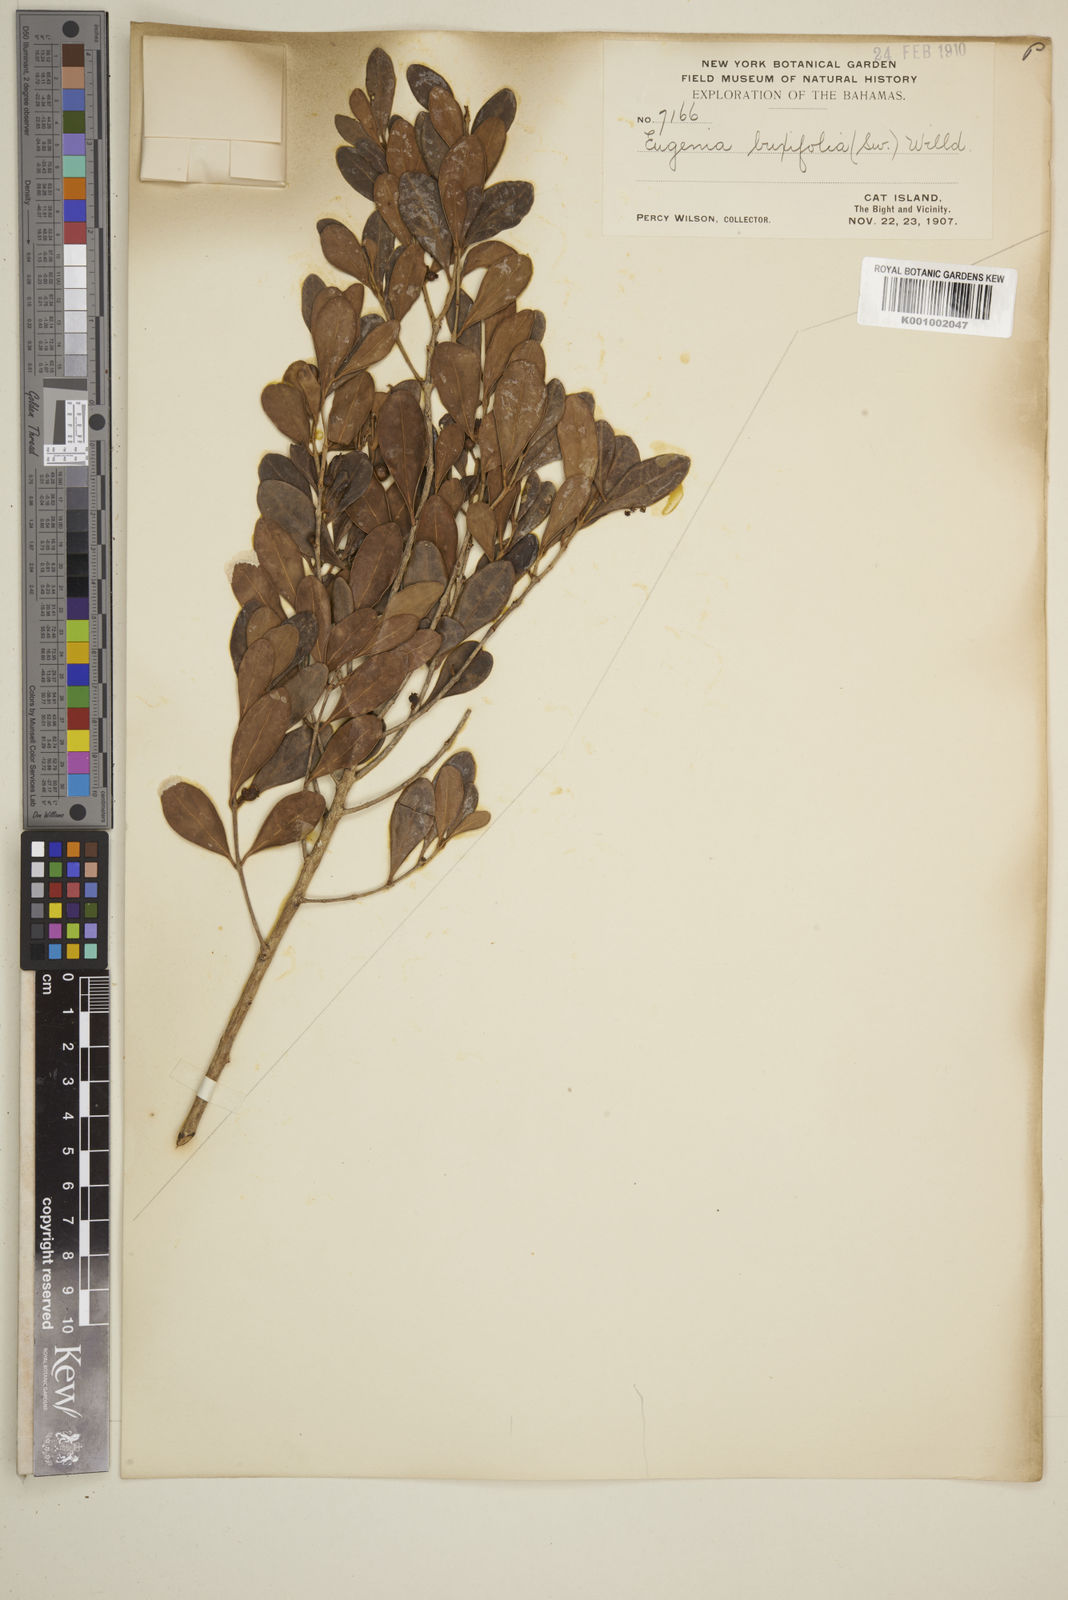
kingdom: Plantae
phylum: Tracheophyta
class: Magnoliopsida
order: Myrtales
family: Myrtaceae
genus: Eugenia
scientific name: Eugenia buxifolia
